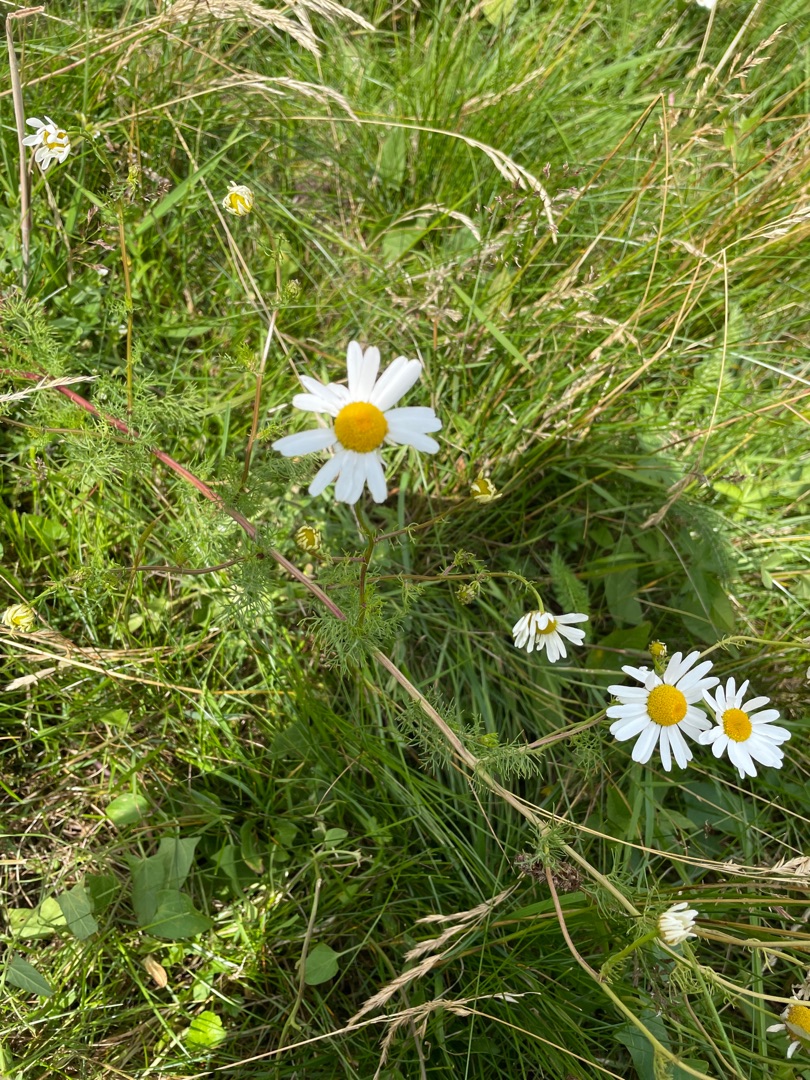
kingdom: Plantae
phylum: Tracheophyta
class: Magnoliopsida
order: Asterales
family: Asteraceae
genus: Tripleurospermum
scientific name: Tripleurospermum maritimum
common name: Strand-kamille
